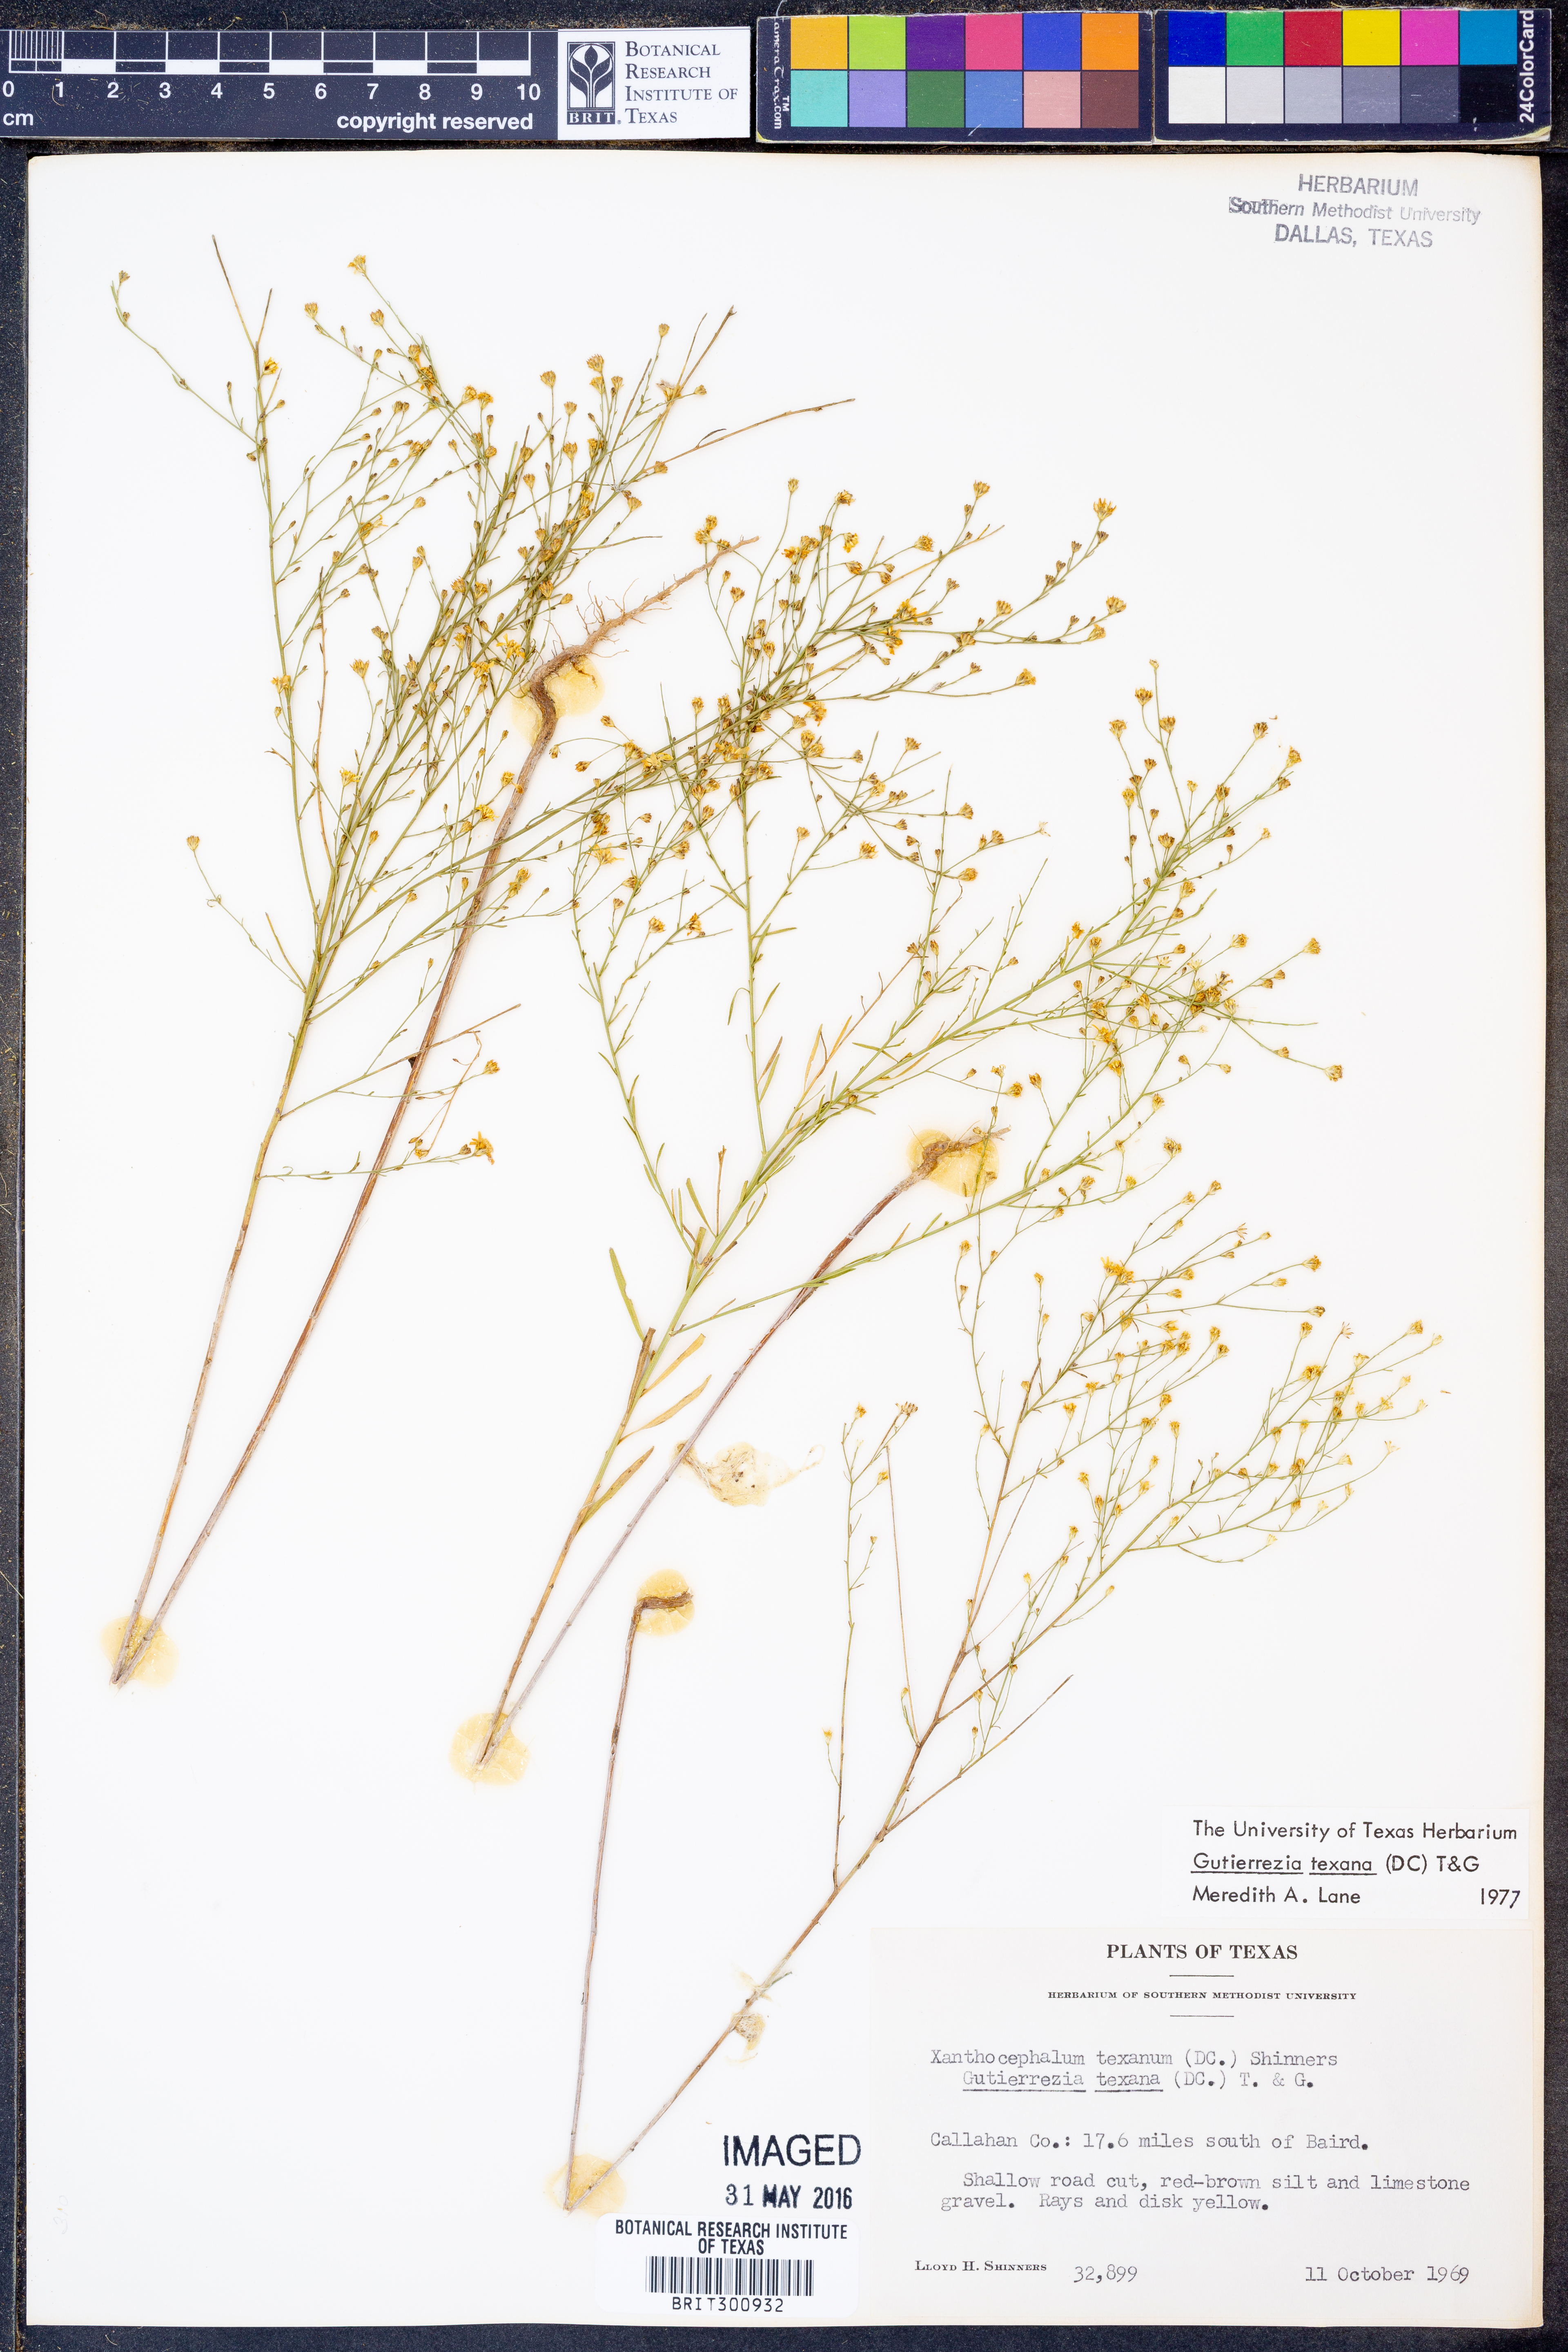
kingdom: Plantae
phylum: Tracheophyta
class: Magnoliopsida
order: Asterales
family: Asteraceae
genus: Gutierrezia
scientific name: Gutierrezia texana
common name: Texas snakeweed
